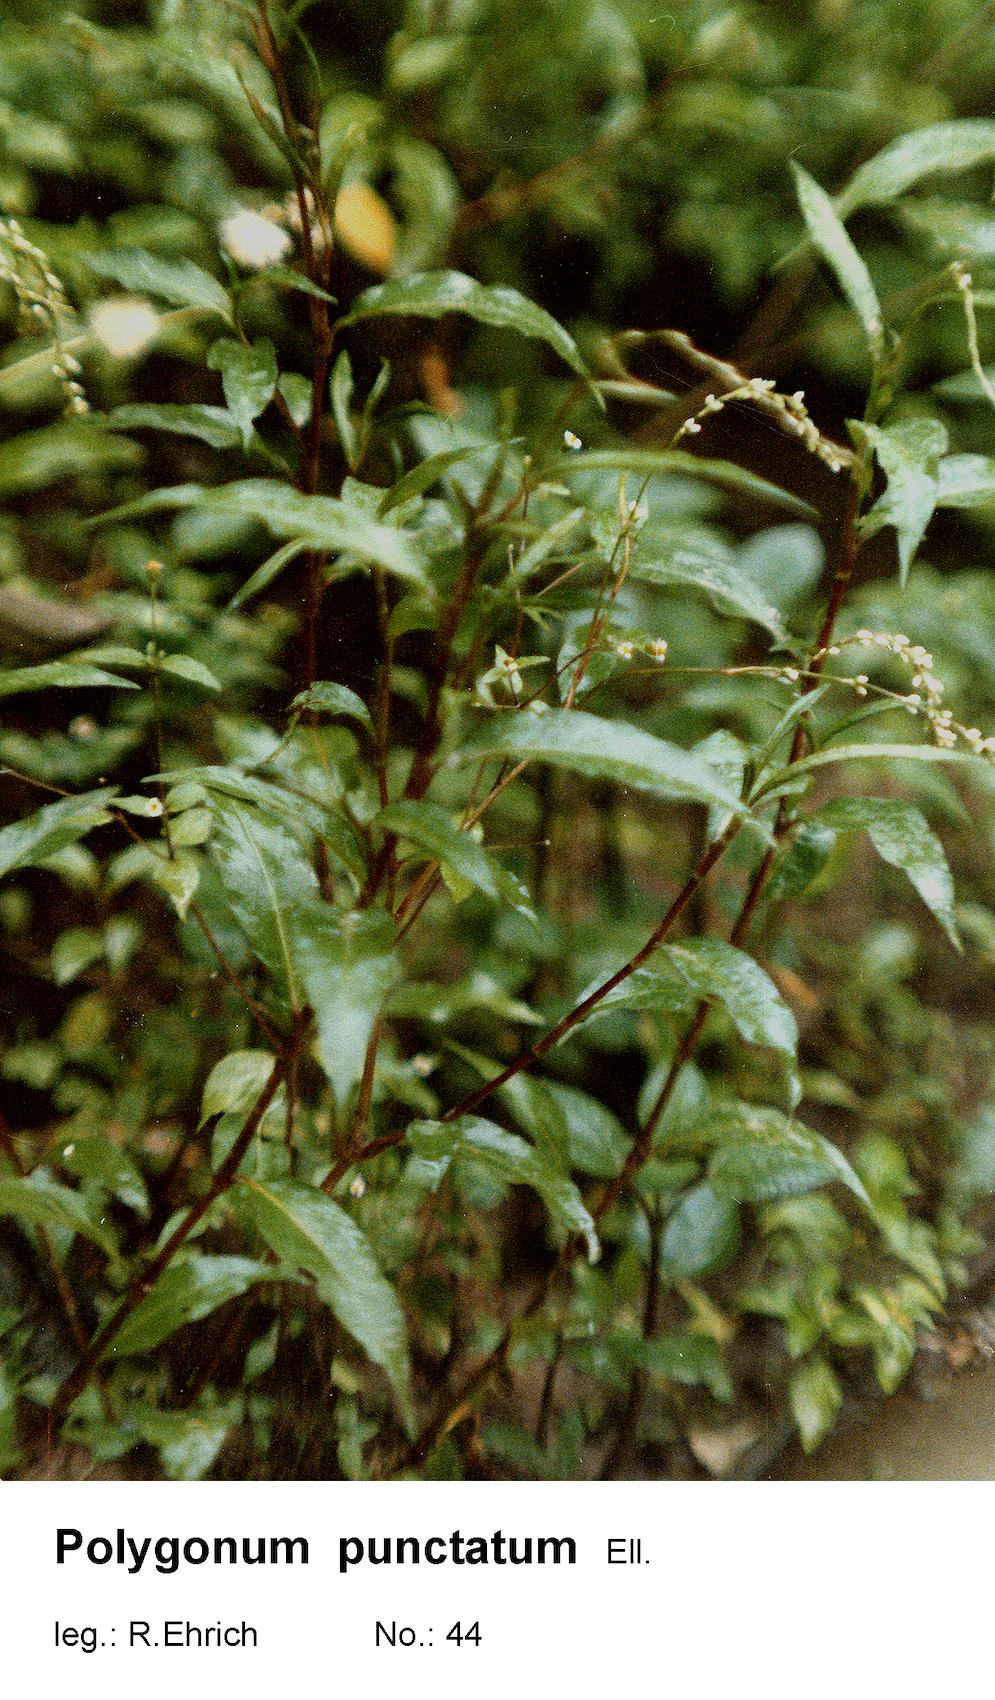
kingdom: Plantae
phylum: Tracheophyta
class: Magnoliopsida
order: Caryophyllales
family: Polygonaceae
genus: Persicaria
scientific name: Persicaria punctata
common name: Dotted smartweed
